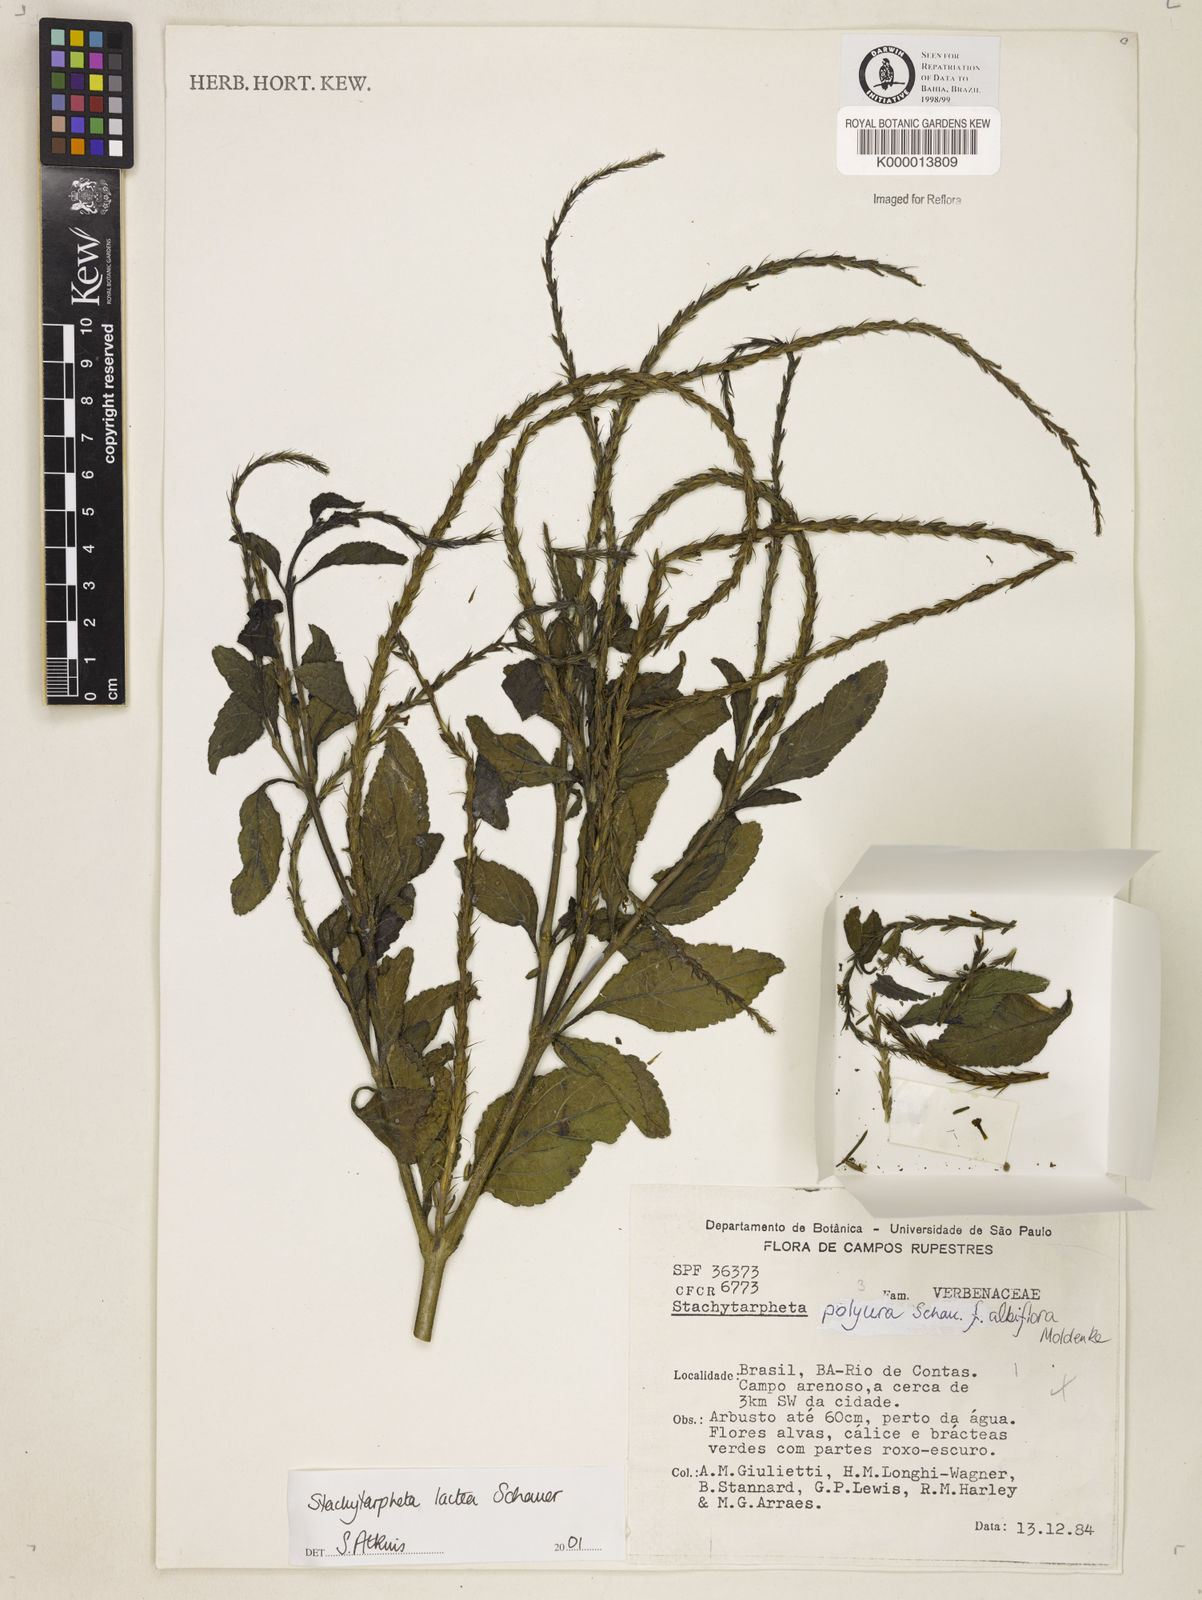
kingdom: Plantae
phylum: Tracheophyta
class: Magnoliopsida
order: Lamiales
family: Verbenaceae
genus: Stachytarpheta
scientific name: Stachytarpheta polyura
